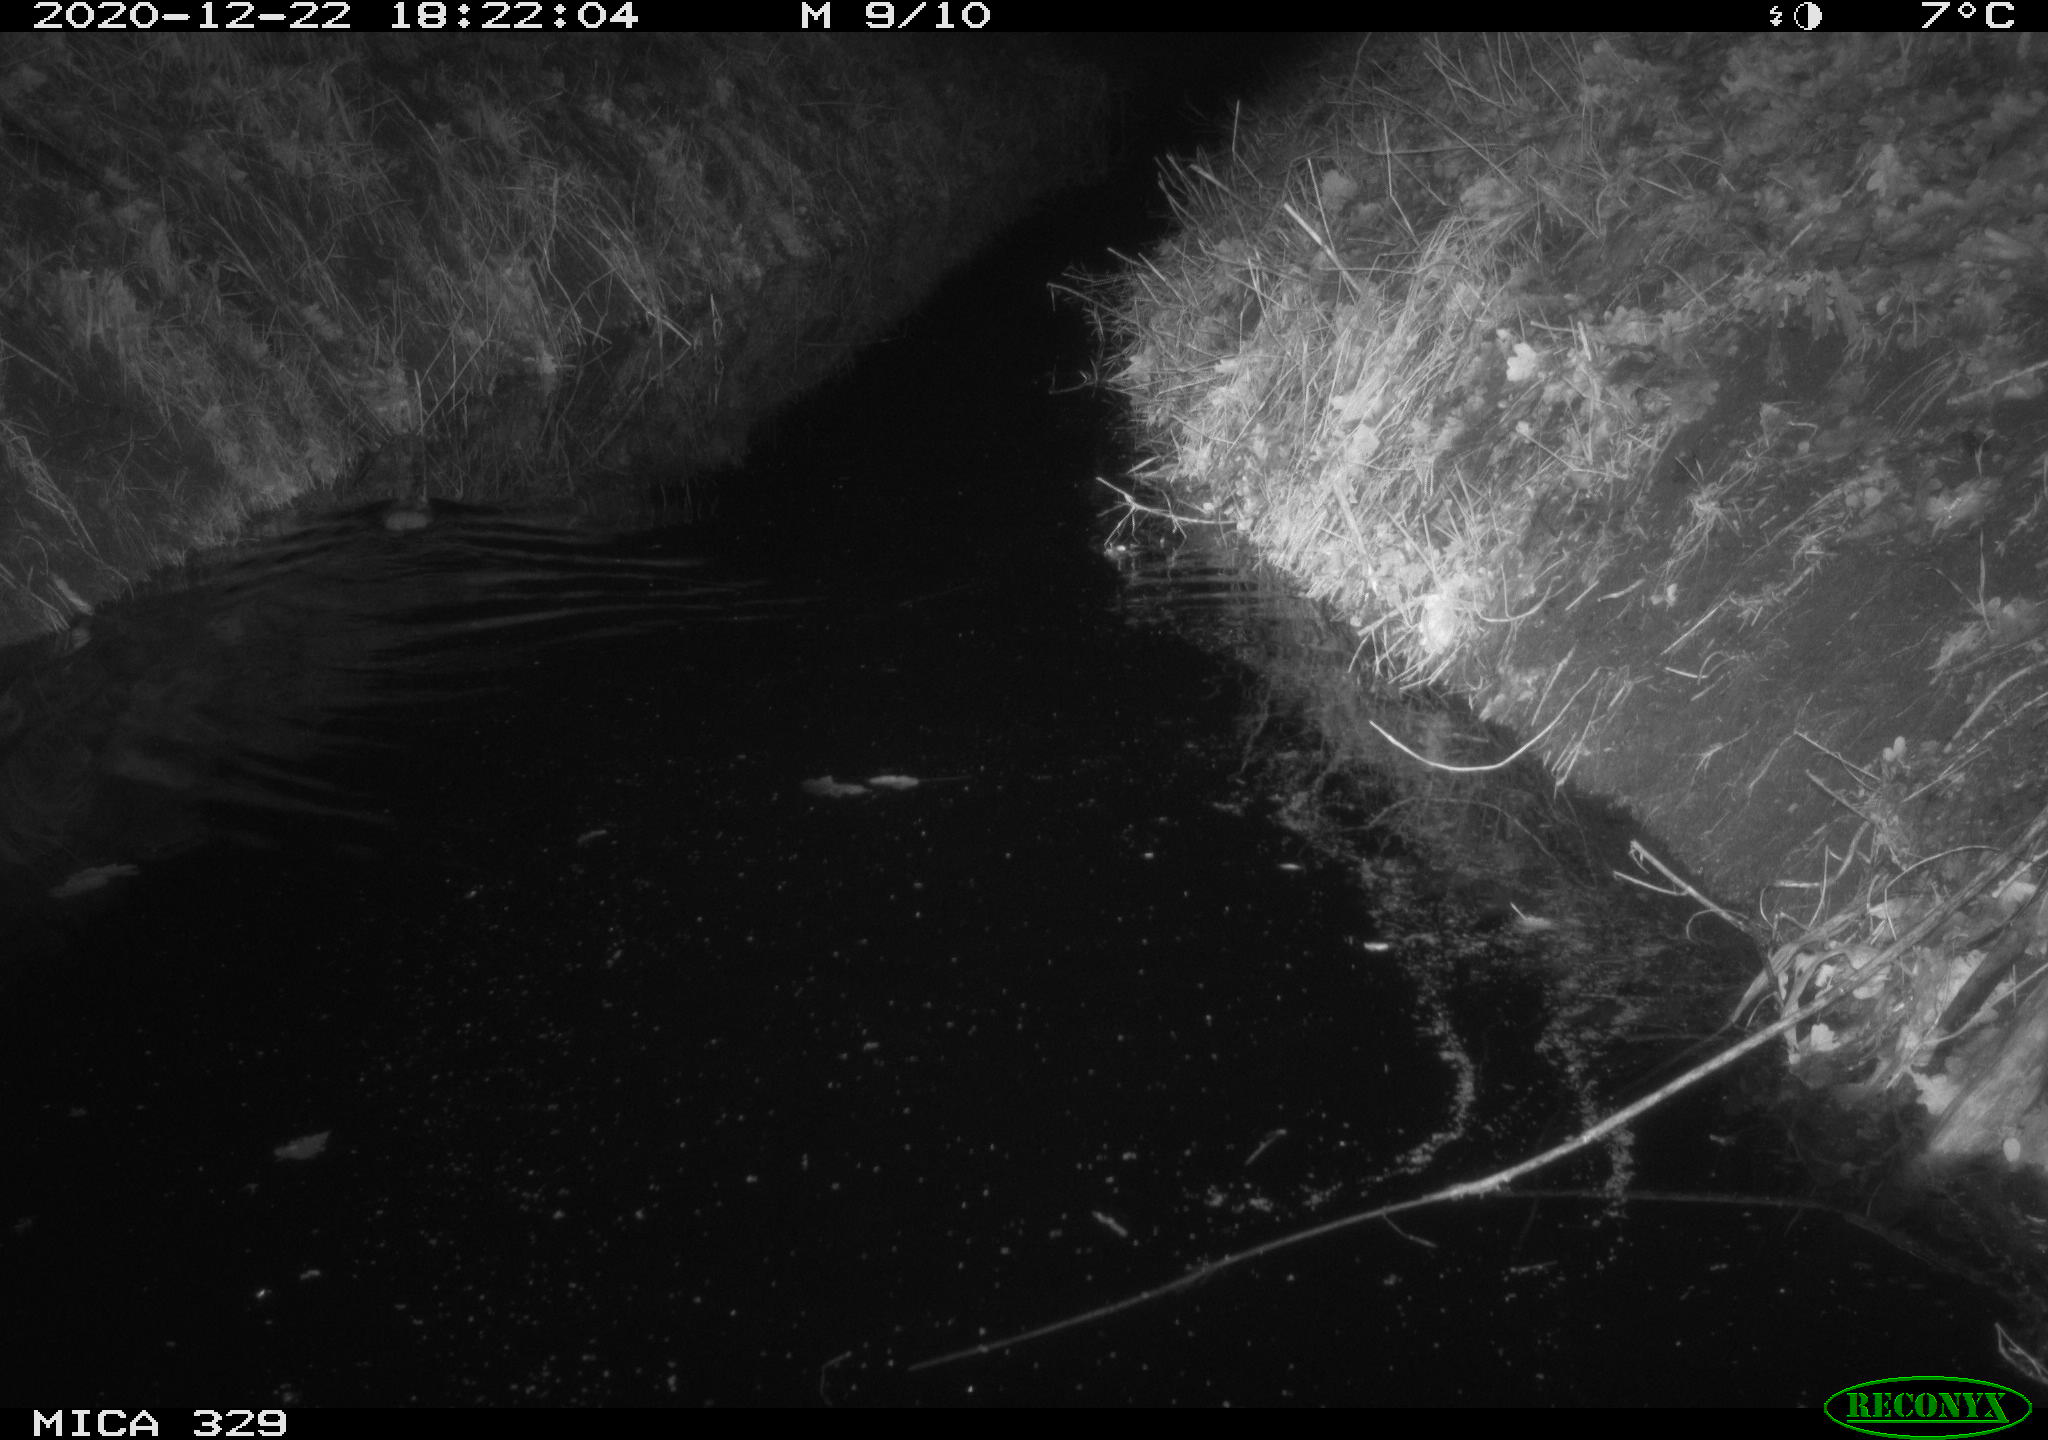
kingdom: Animalia
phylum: Chordata
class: Mammalia
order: Rodentia
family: Muridae
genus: Rattus
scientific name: Rattus norvegicus
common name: Brown rat
